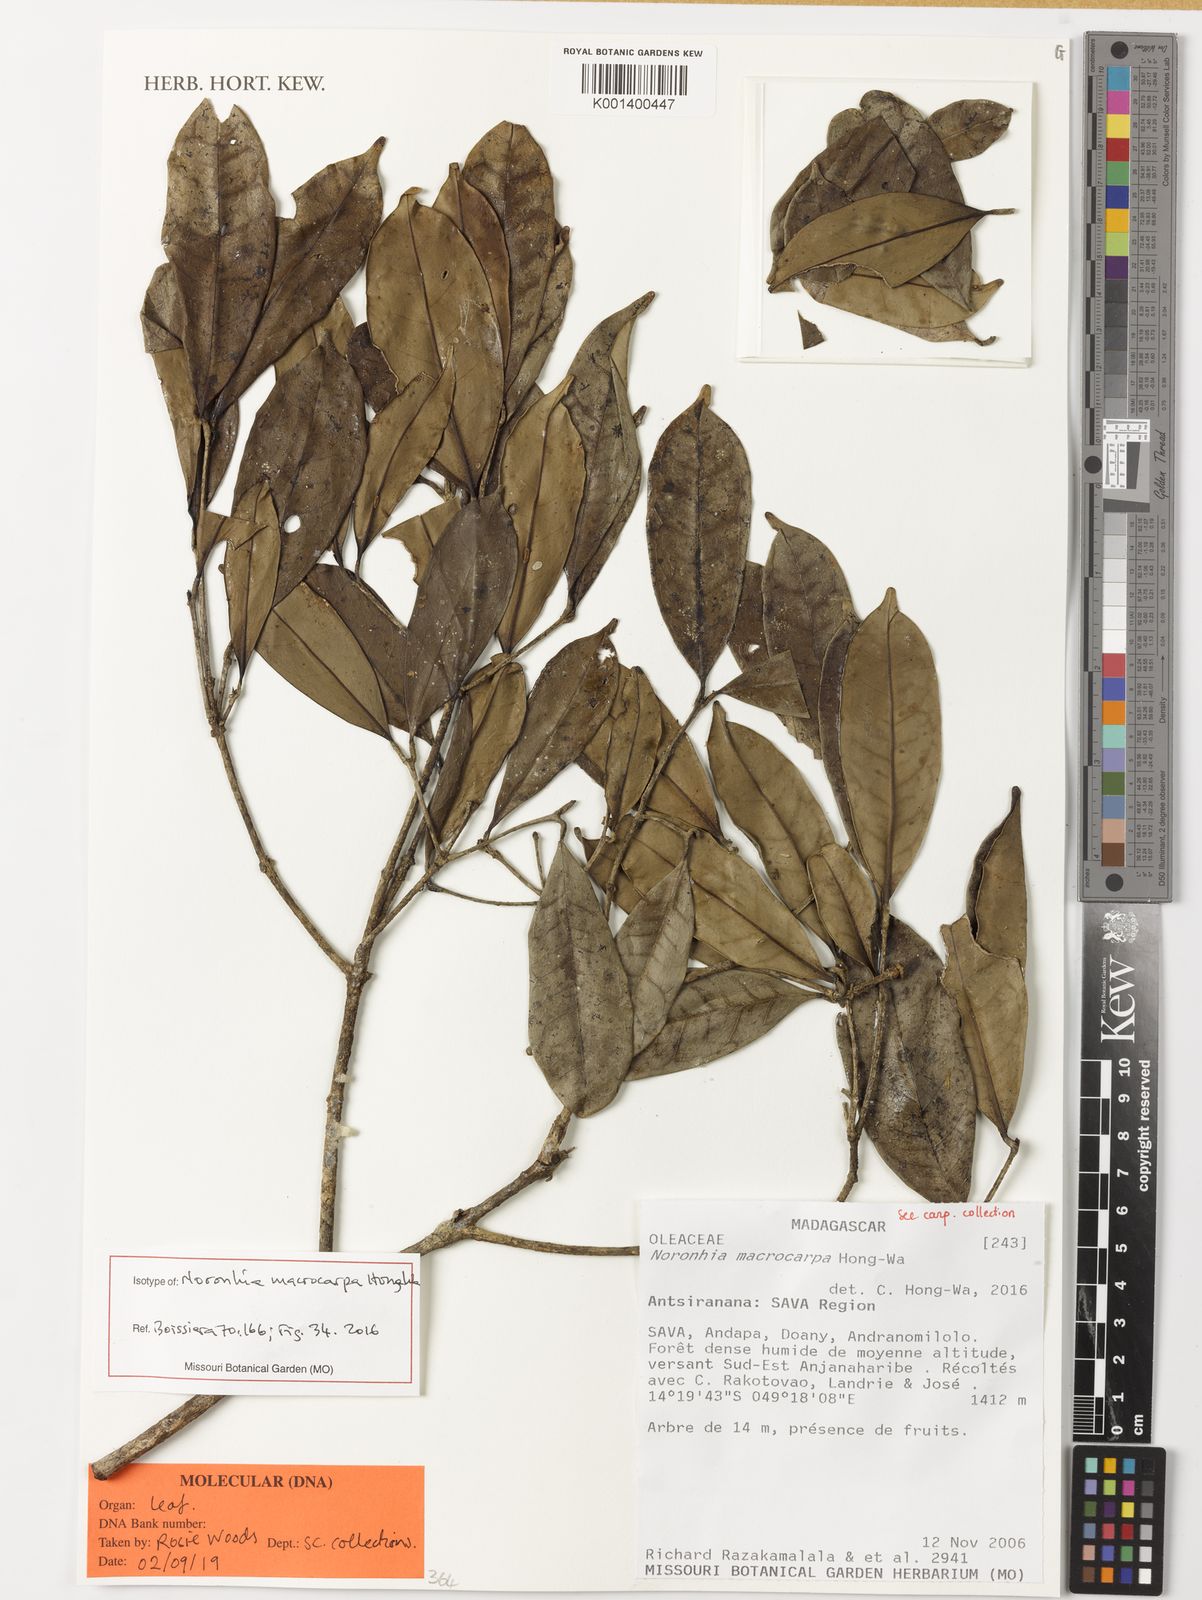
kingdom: Plantae
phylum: Tracheophyta
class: Magnoliopsida
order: Lamiales
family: Oleaceae
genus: Noronhia
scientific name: Noronhia macrocarpa
